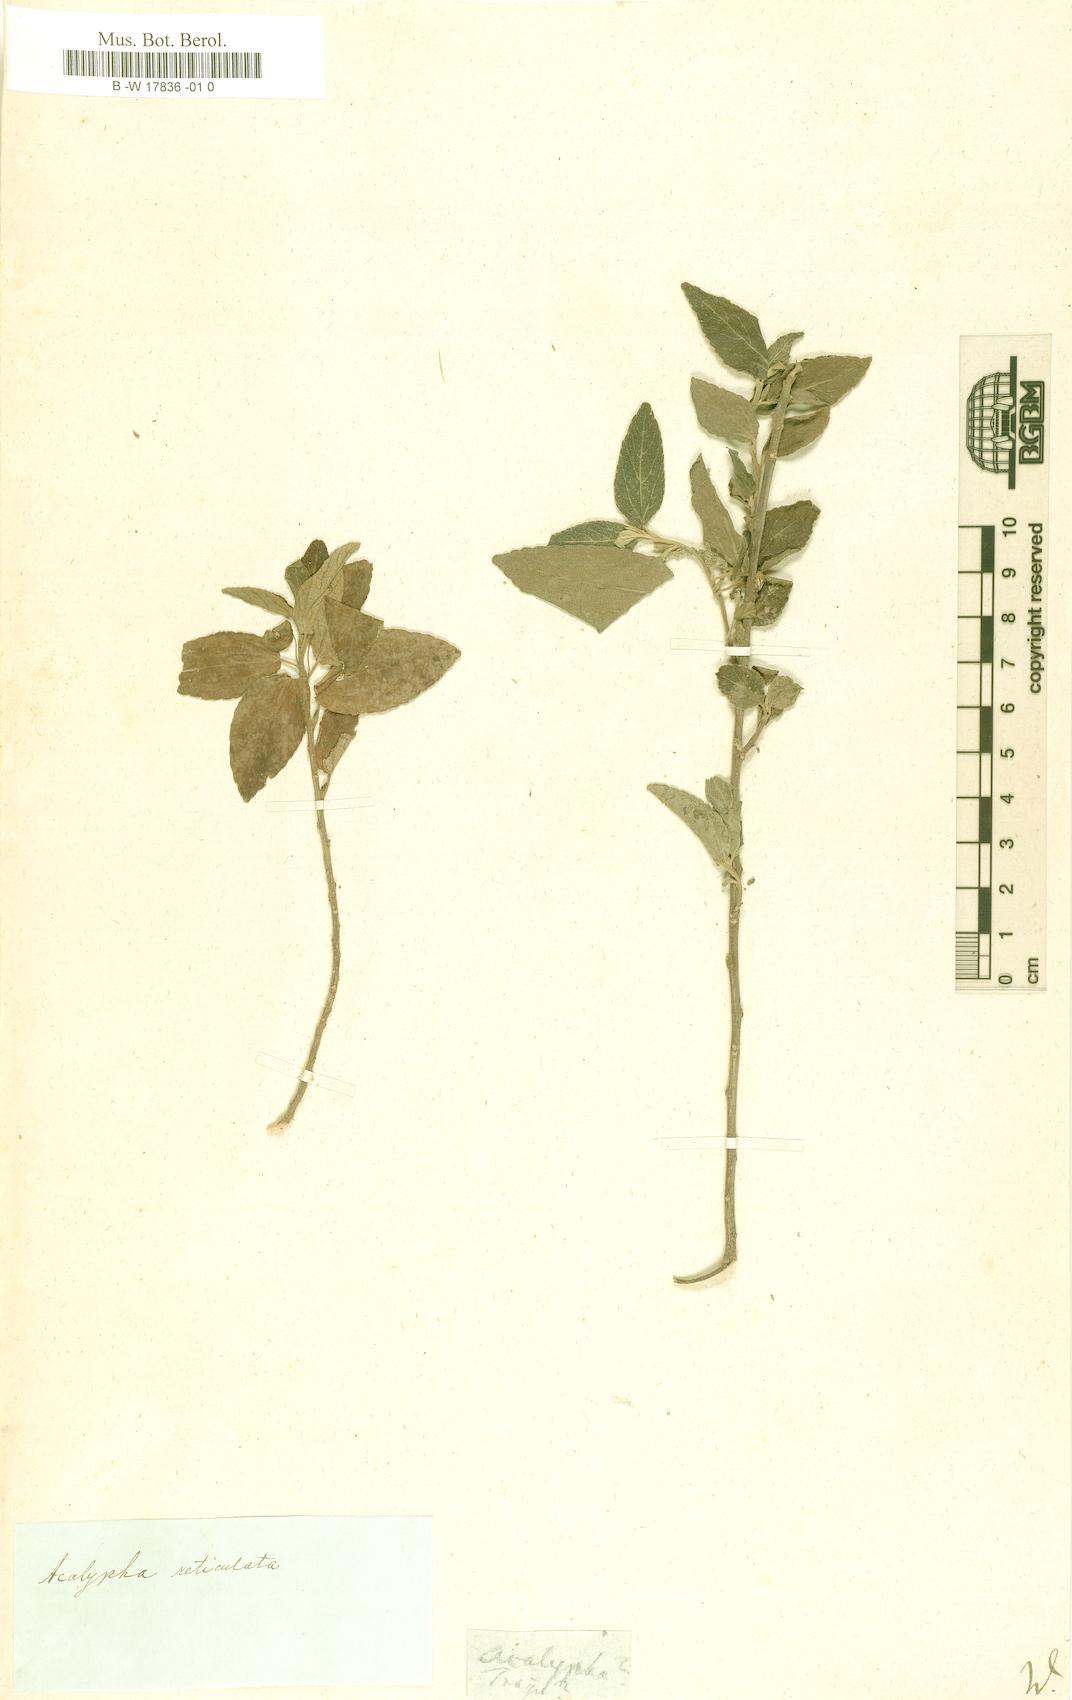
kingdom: Plantae
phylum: Tracheophyta
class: Magnoliopsida
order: Malpighiales
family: Euphorbiaceae
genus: Acalypha
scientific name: Acalypha
